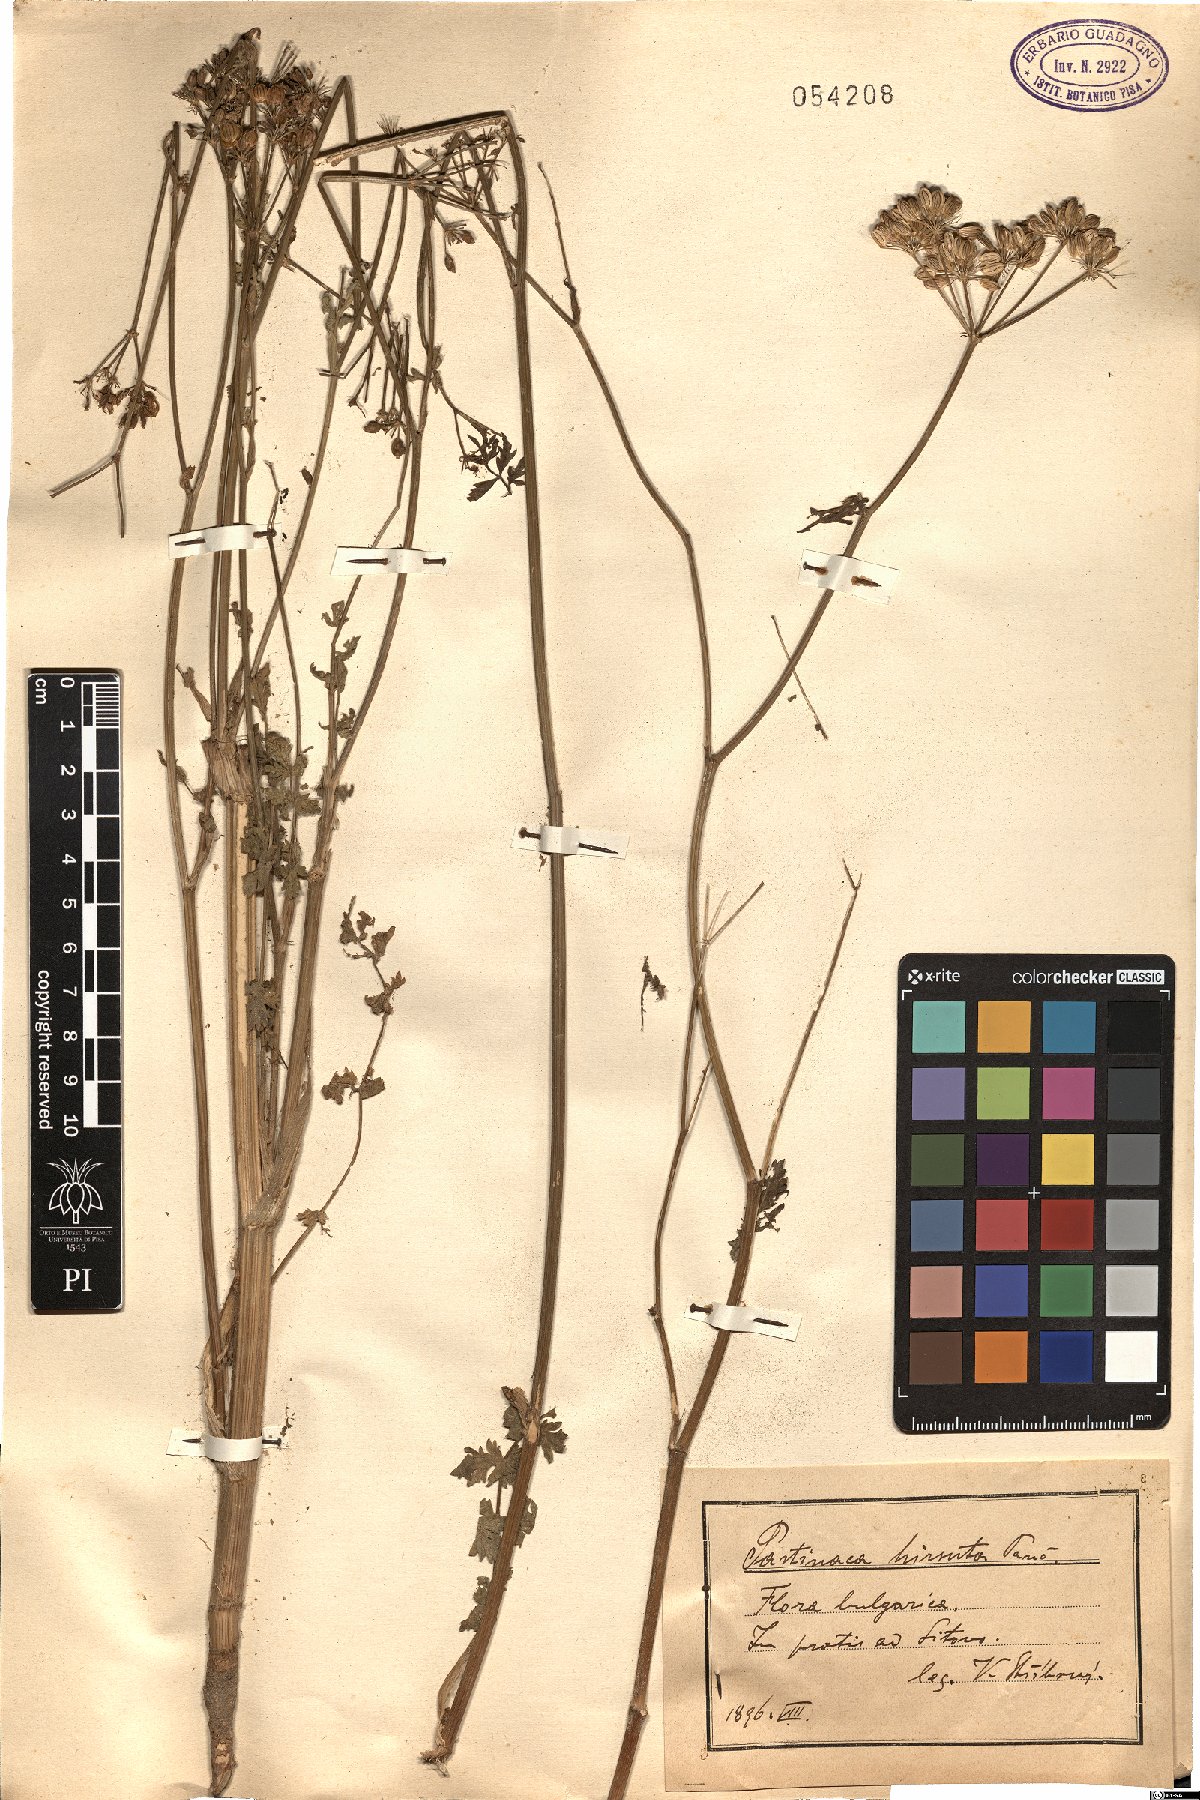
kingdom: Plantae
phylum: Tracheophyta
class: Magnoliopsida
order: Apiales
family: Apiaceae
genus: Pastinaca
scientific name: Pastinaca hirsuta
